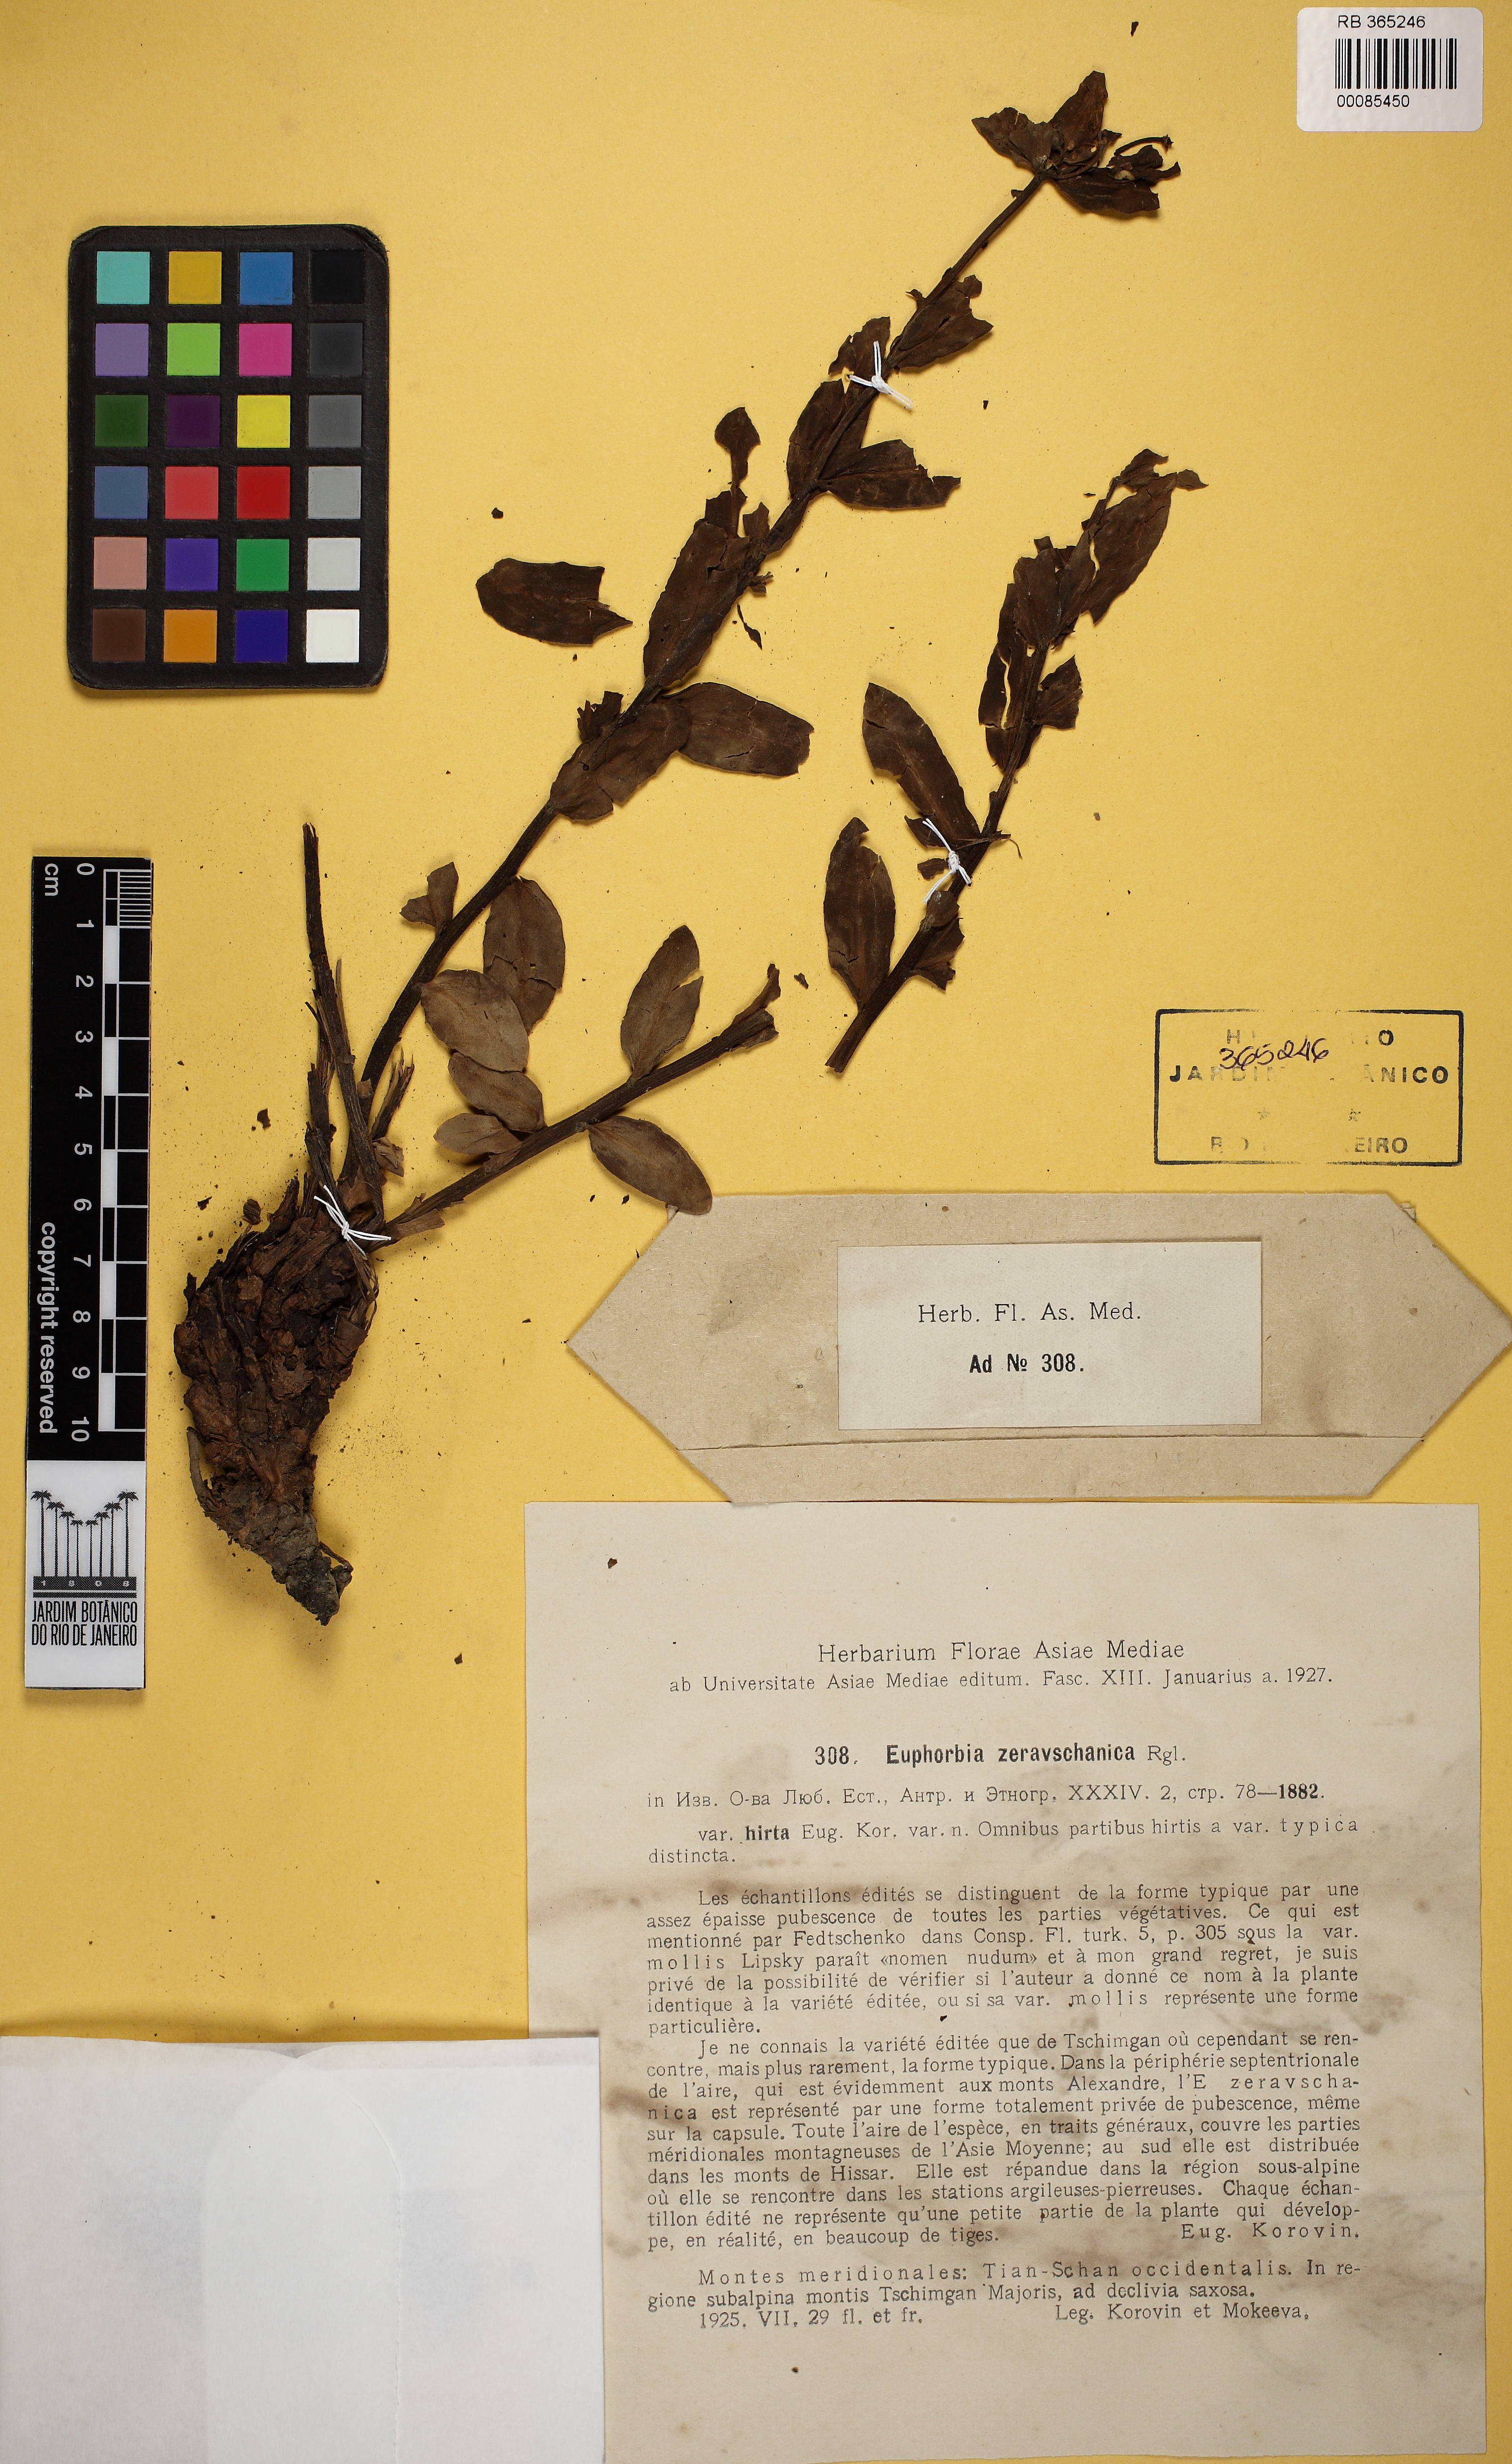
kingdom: Plantae
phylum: Tracheophyta
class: Magnoliopsida
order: Malpighiales
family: Euphorbiaceae
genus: Euphorbia
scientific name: Euphorbia
